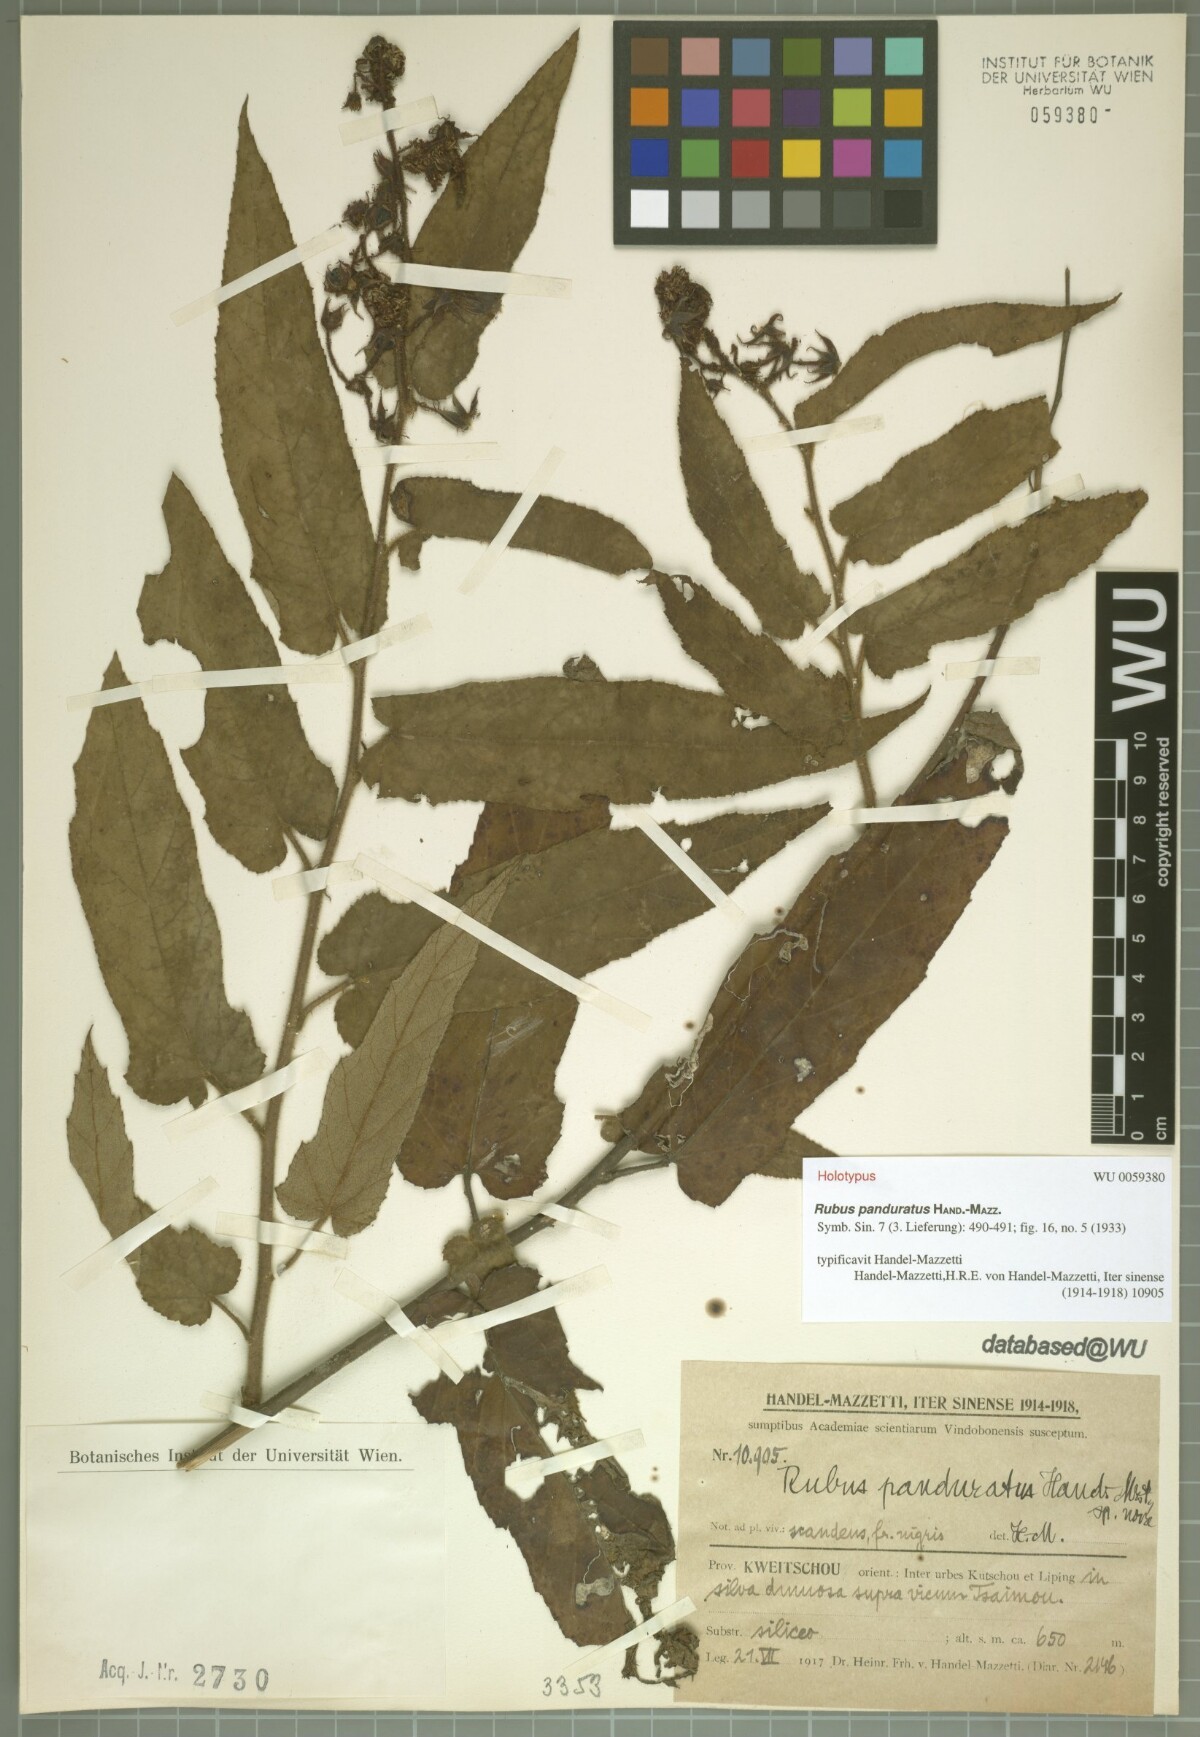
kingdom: Plantae
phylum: Tracheophyta
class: Magnoliopsida
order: Rosales
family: Rosaceae
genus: Rubus
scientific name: Rubus panduratus
